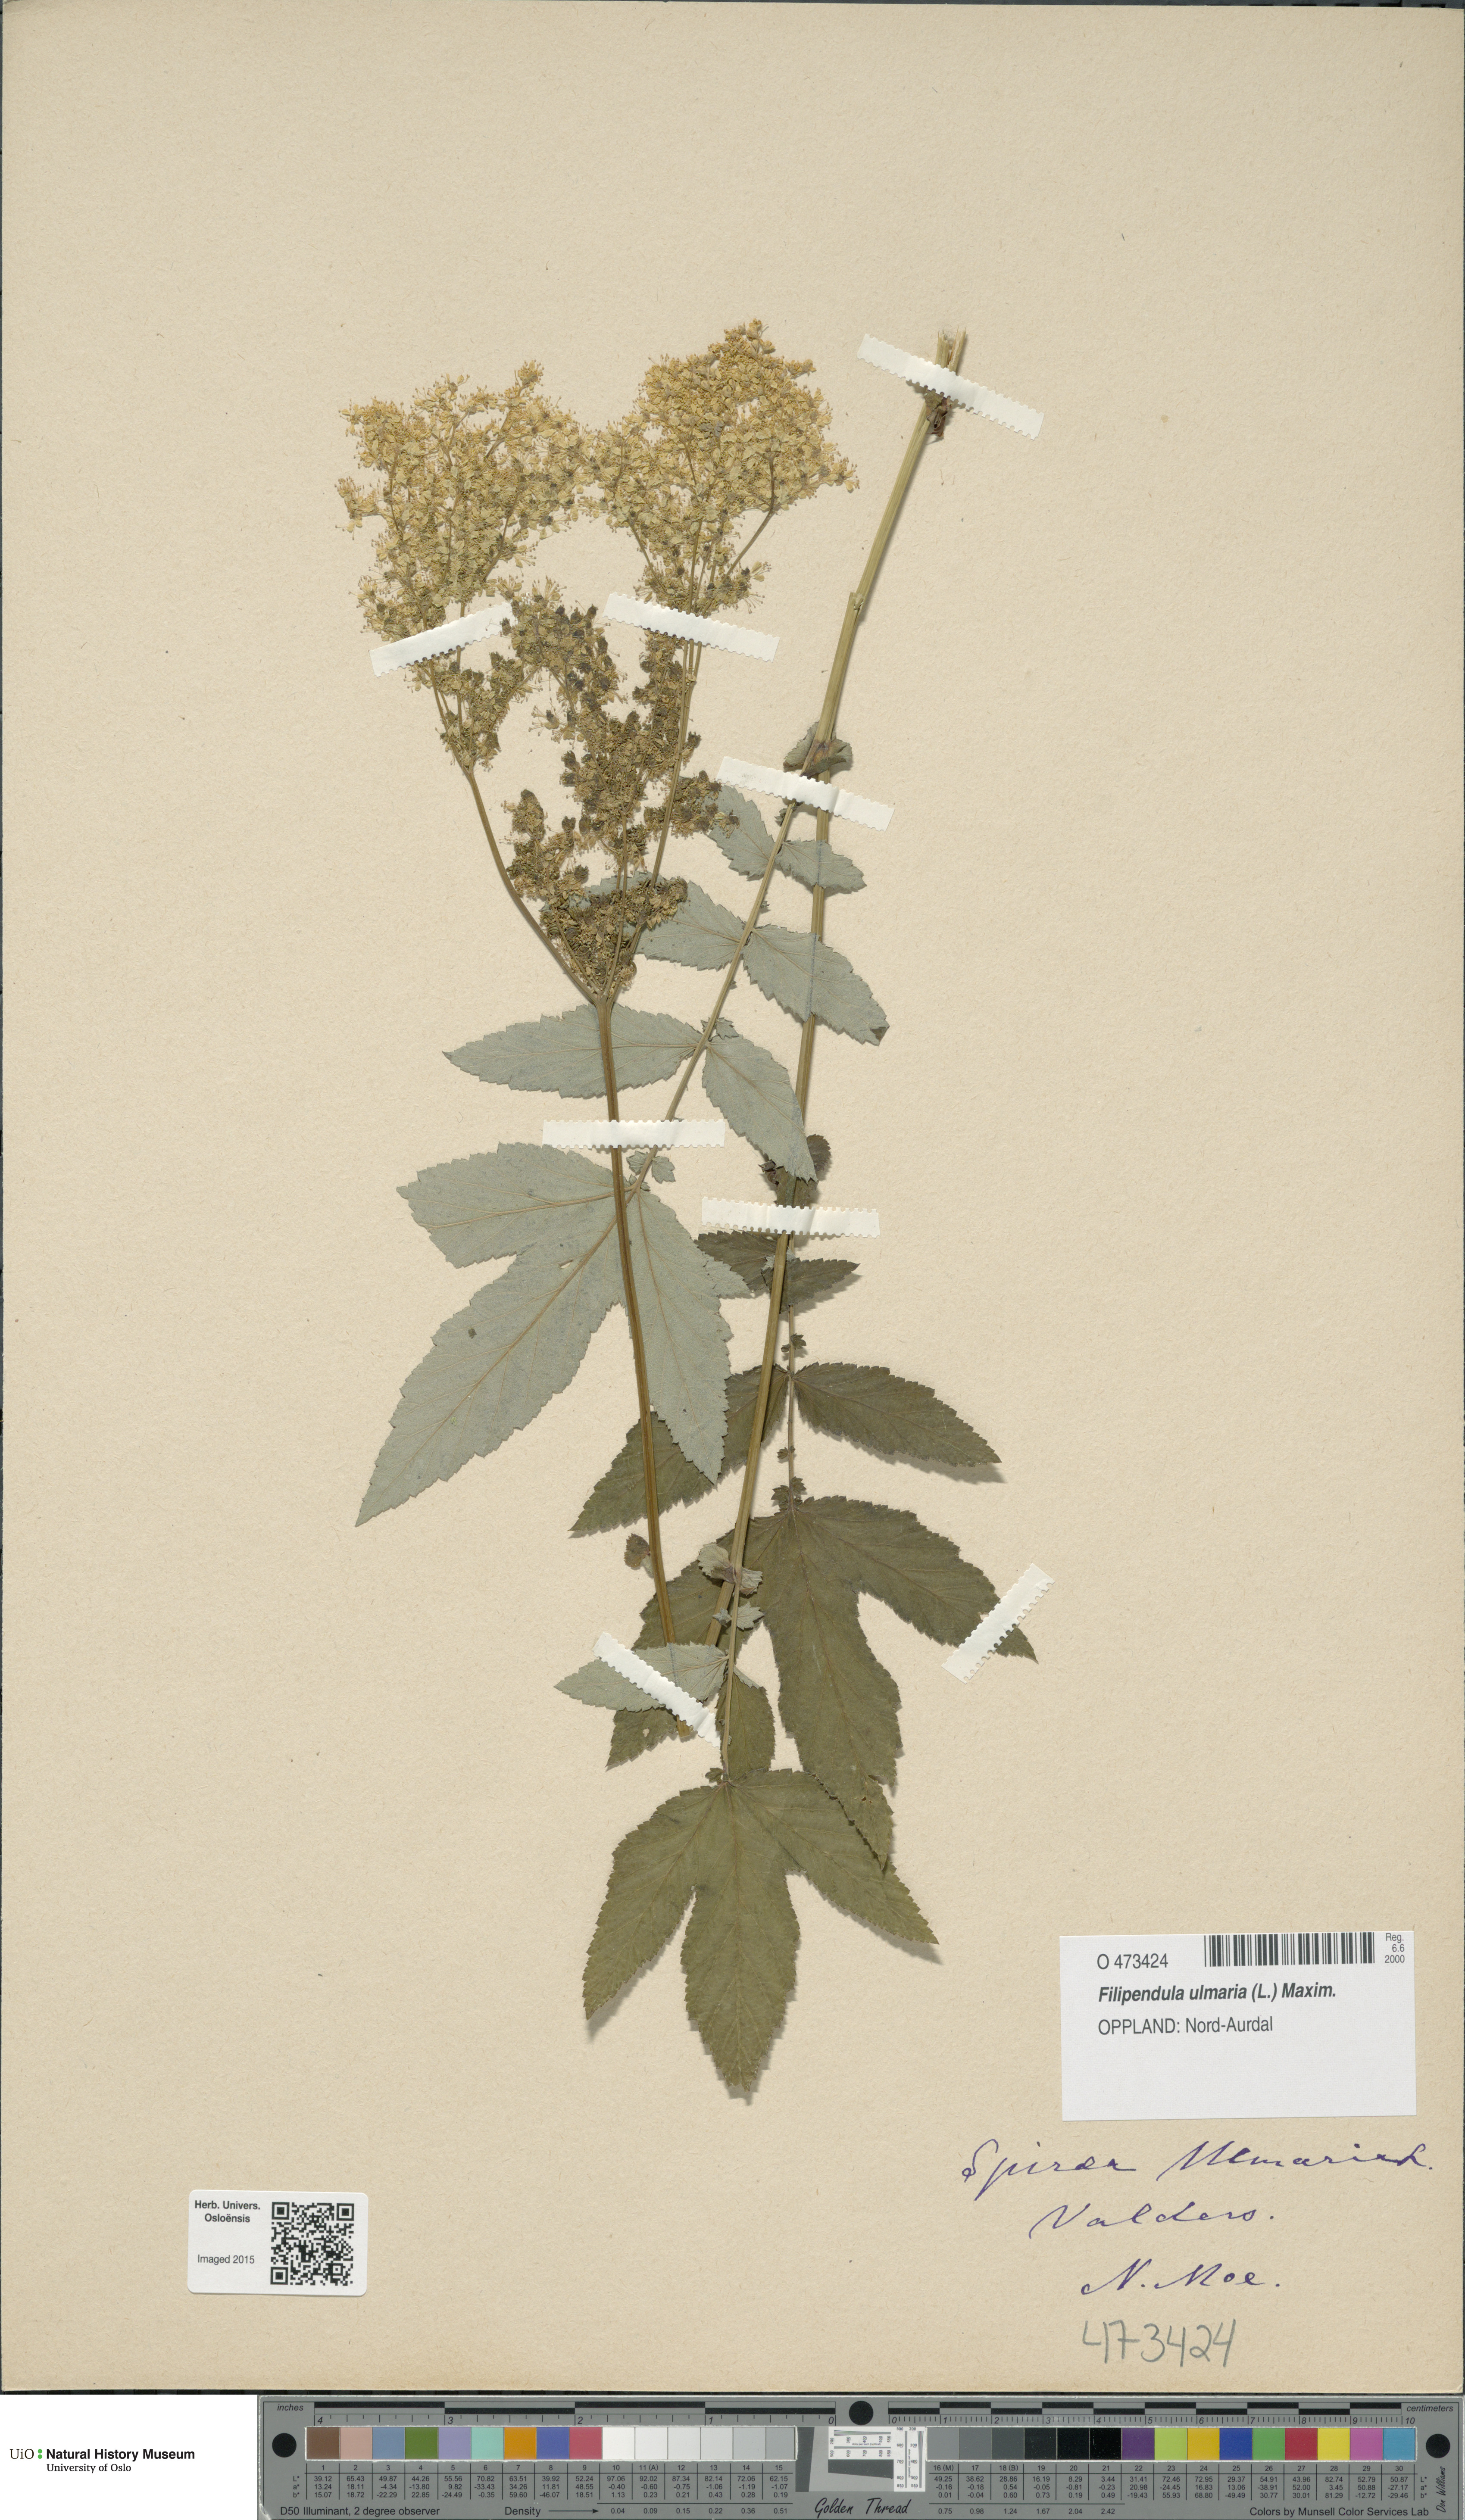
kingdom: Plantae
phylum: Tracheophyta
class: Magnoliopsida
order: Rosales
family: Rosaceae
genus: Filipendula
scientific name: Filipendula ulmaria
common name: Meadowsweet
